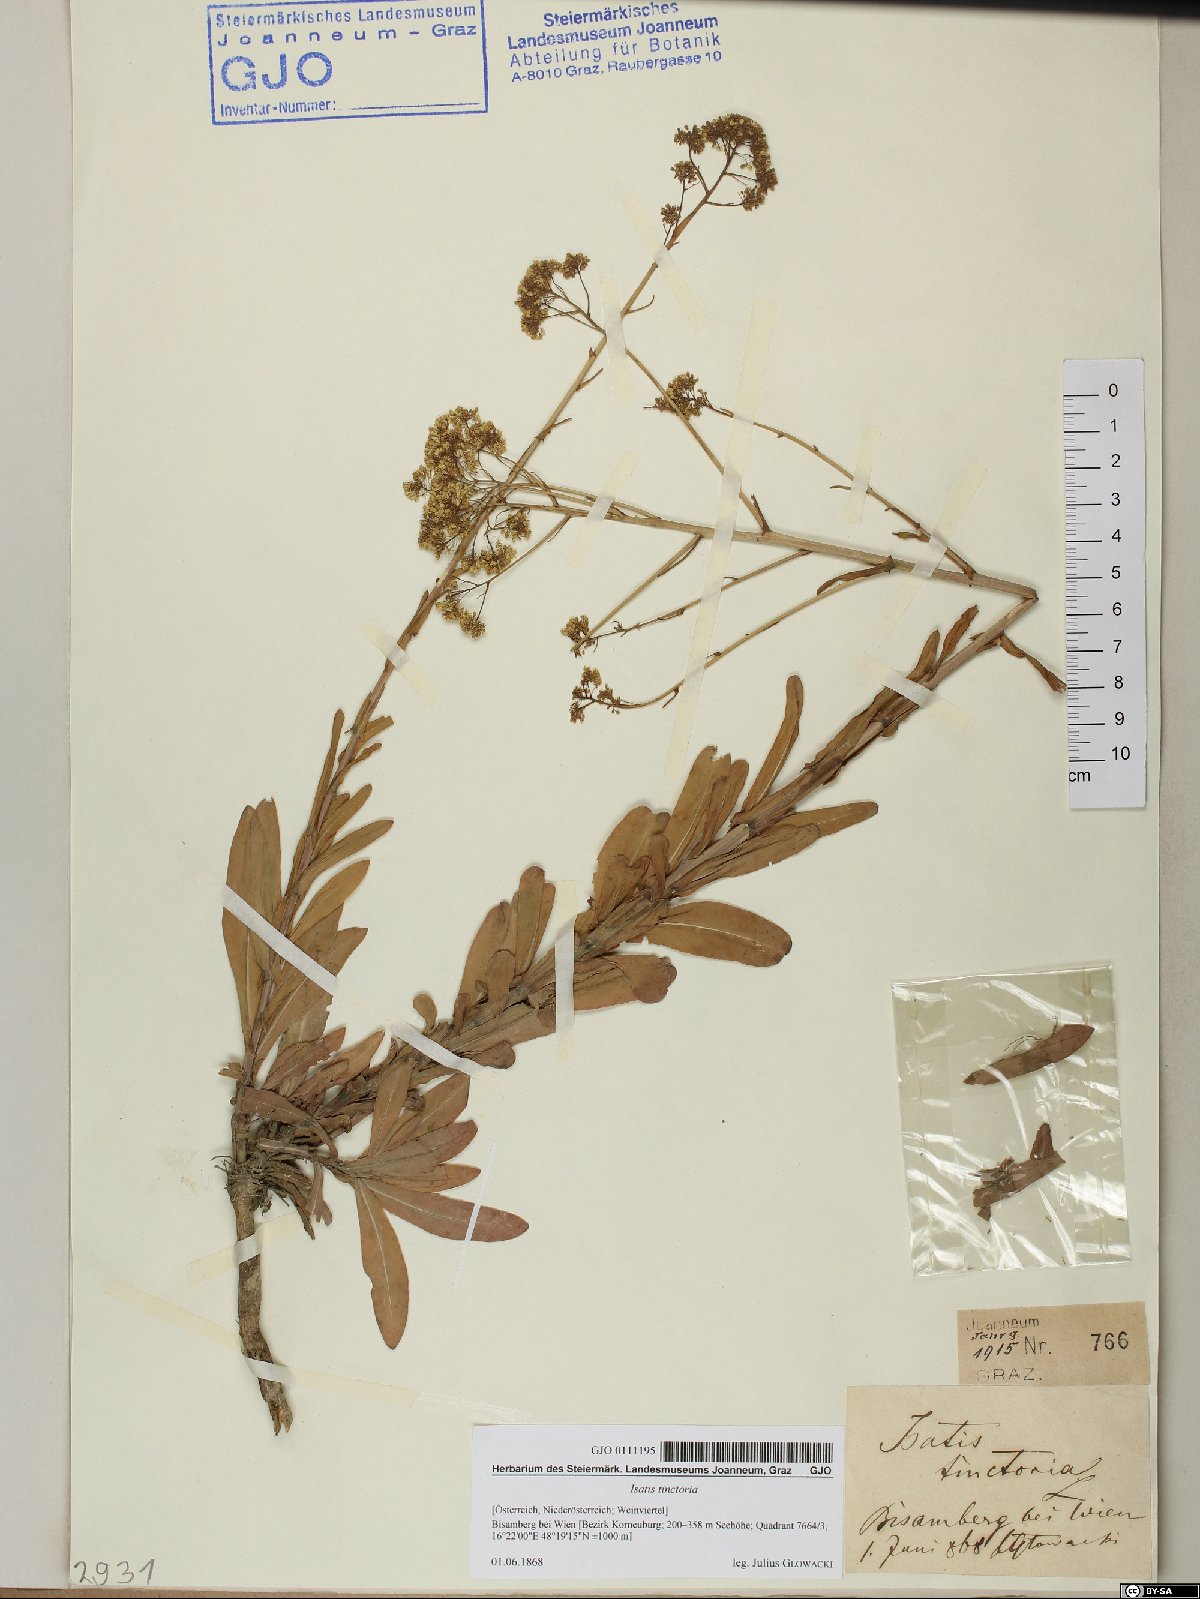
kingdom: Plantae
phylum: Tracheophyta
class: Magnoliopsida
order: Brassicales
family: Brassicaceae
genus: Isatis
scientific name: Isatis tinctoria
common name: Woad
